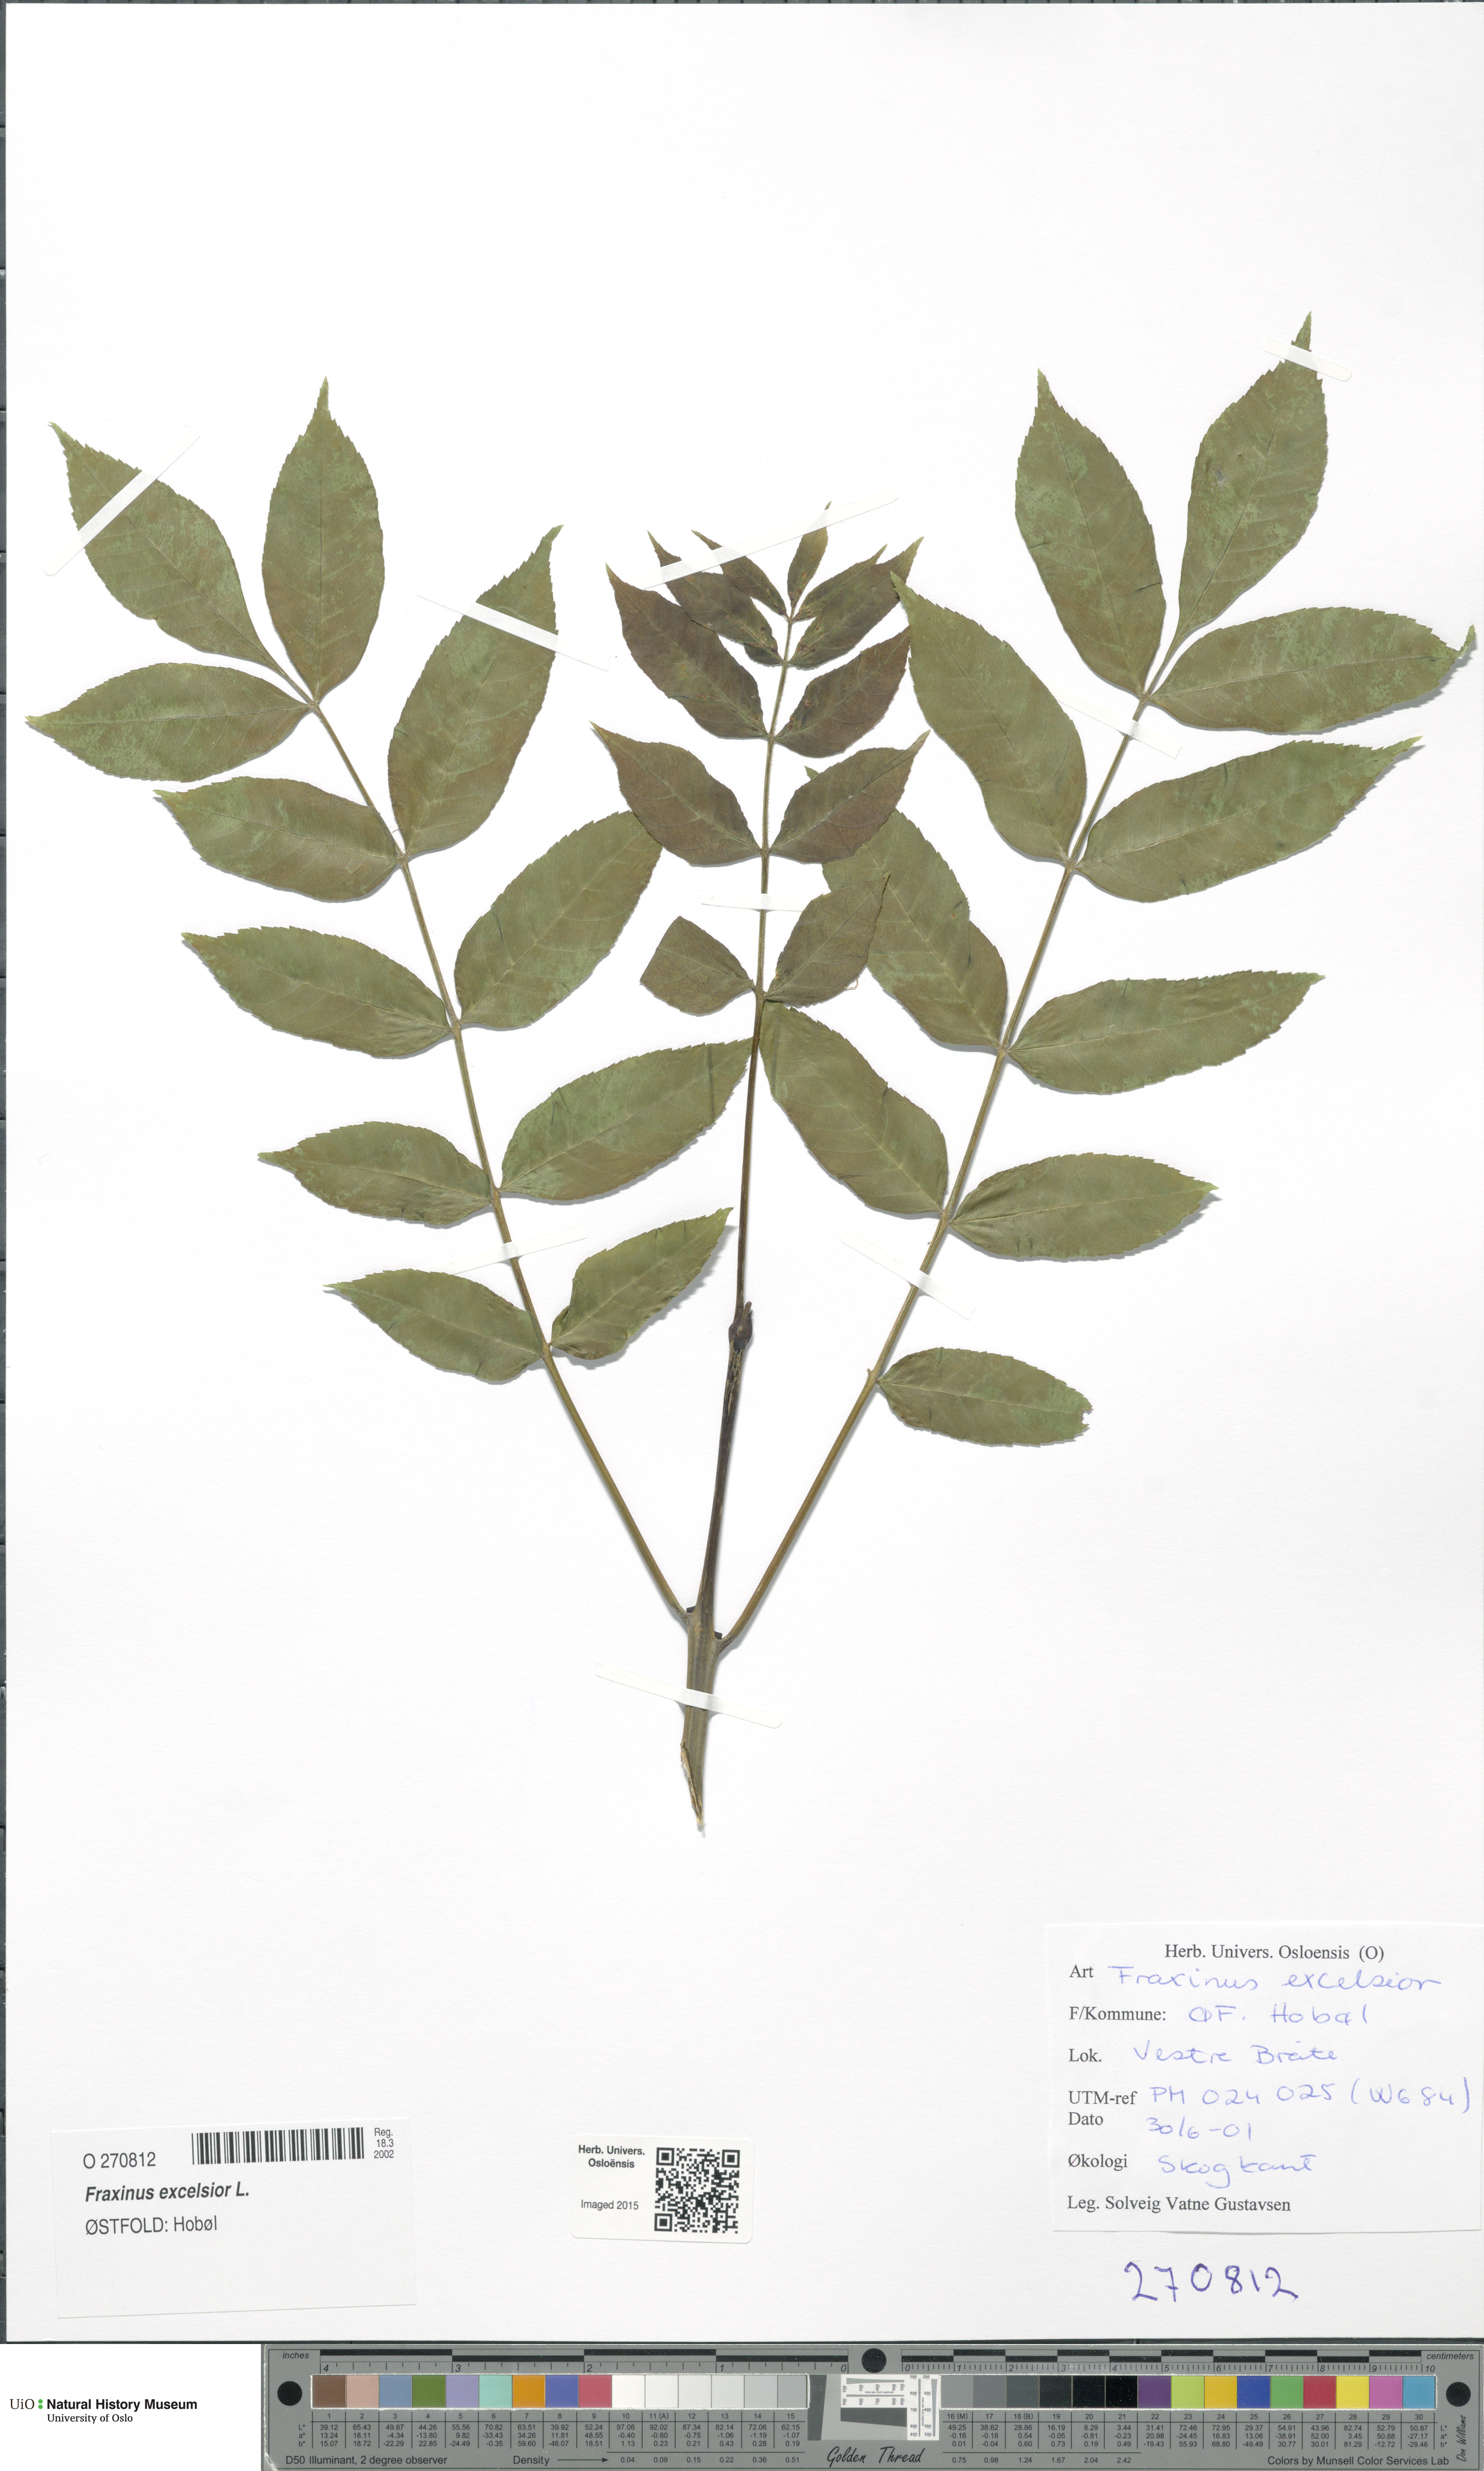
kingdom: Plantae
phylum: Tracheophyta
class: Magnoliopsida
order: Lamiales
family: Oleaceae
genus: Fraxinus
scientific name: Fraxinus excelsior
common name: European ash
